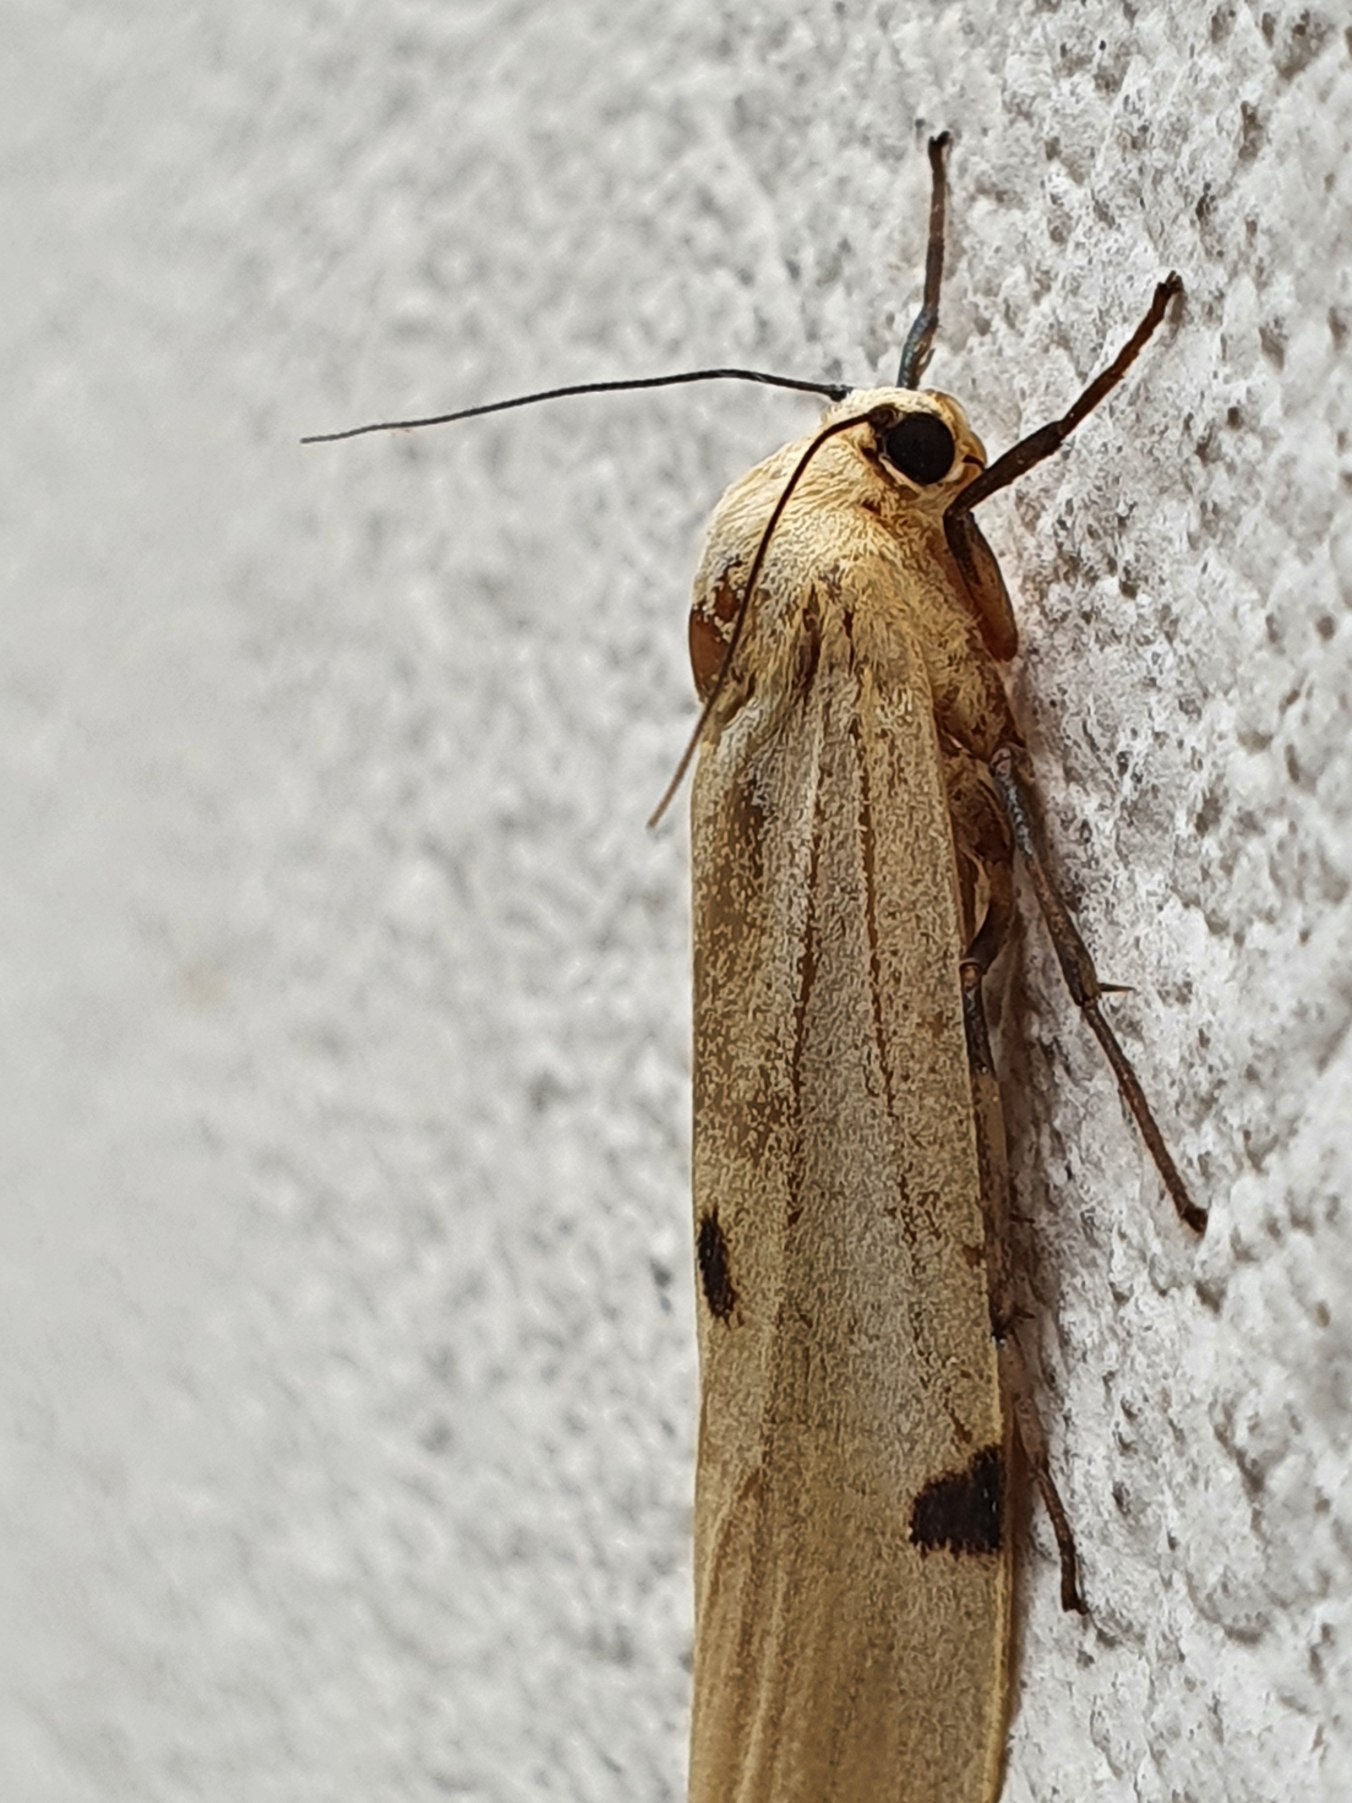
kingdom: Animalia
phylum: Arthropoda
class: Insecta
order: Lepidoptera
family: Erebidae
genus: Lithosia
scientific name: Lithosia quadra
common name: Stor lavspinder
